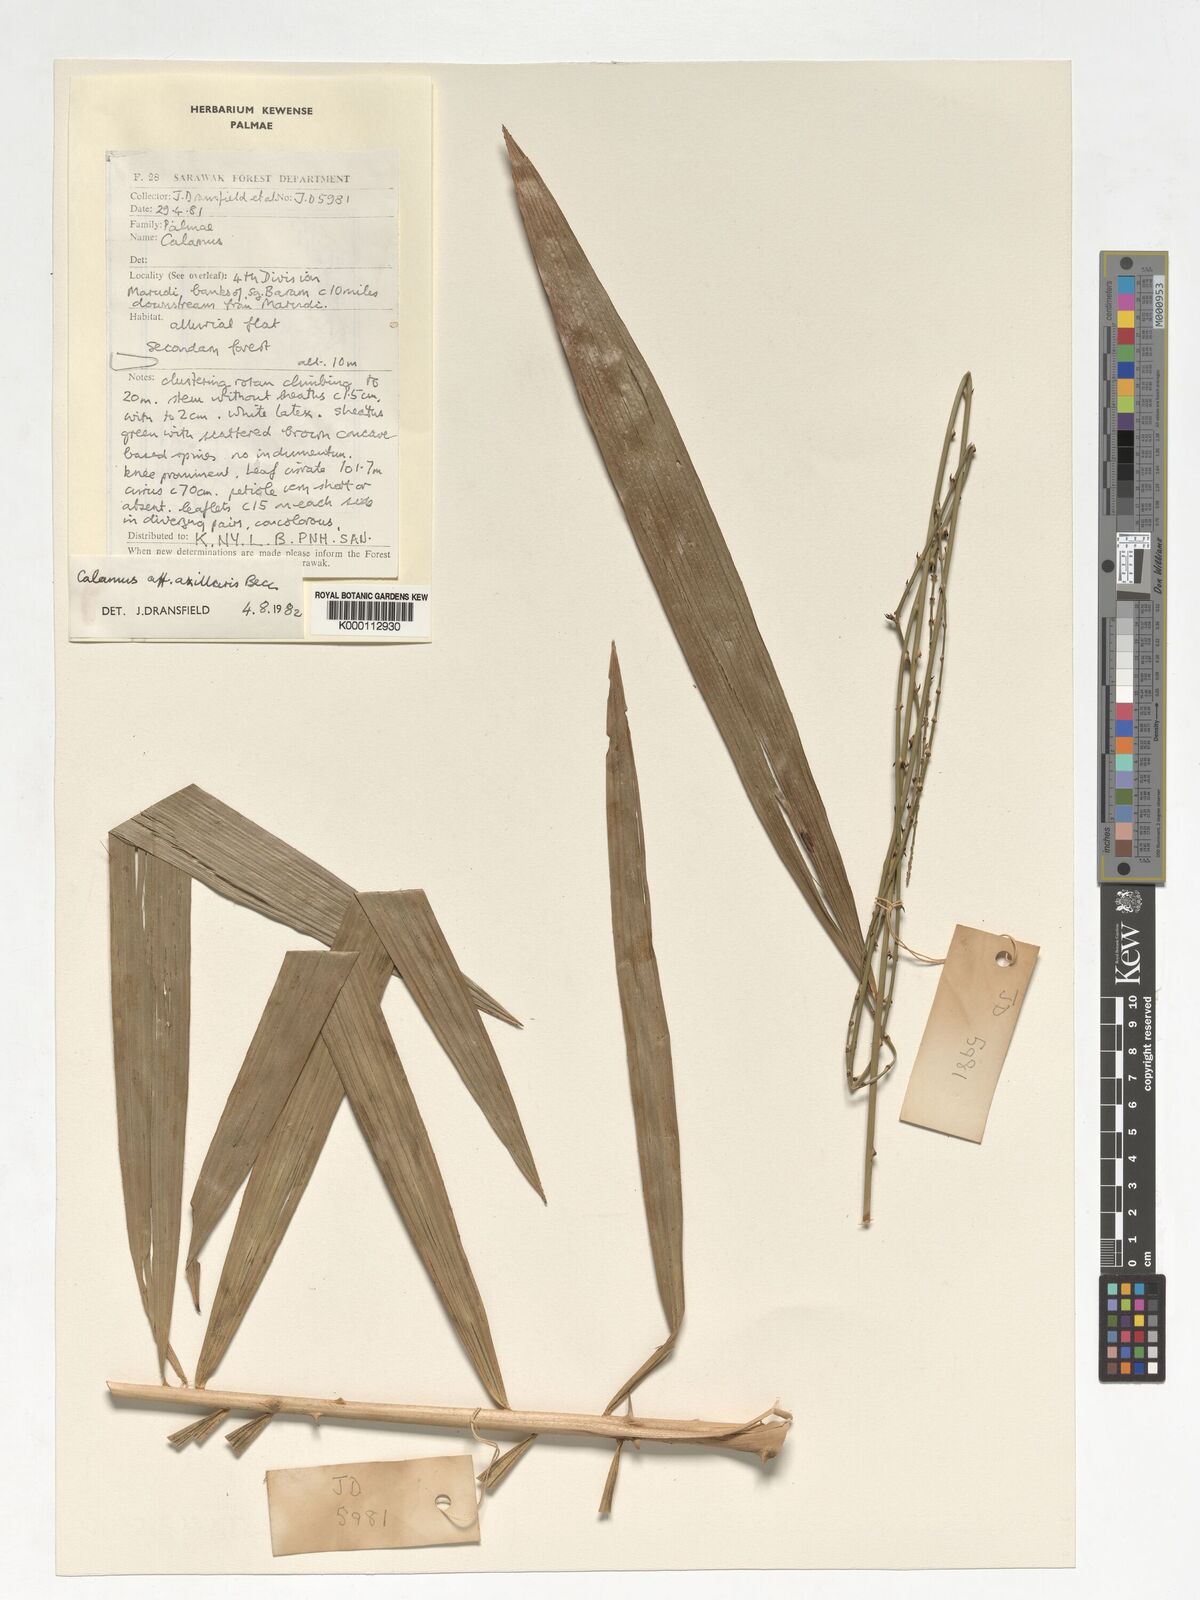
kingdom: Plantae
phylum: Tracheophyta
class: Liliopsida
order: Arecales
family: Arecaceae
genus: Calamus
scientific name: Calamus axillaris
